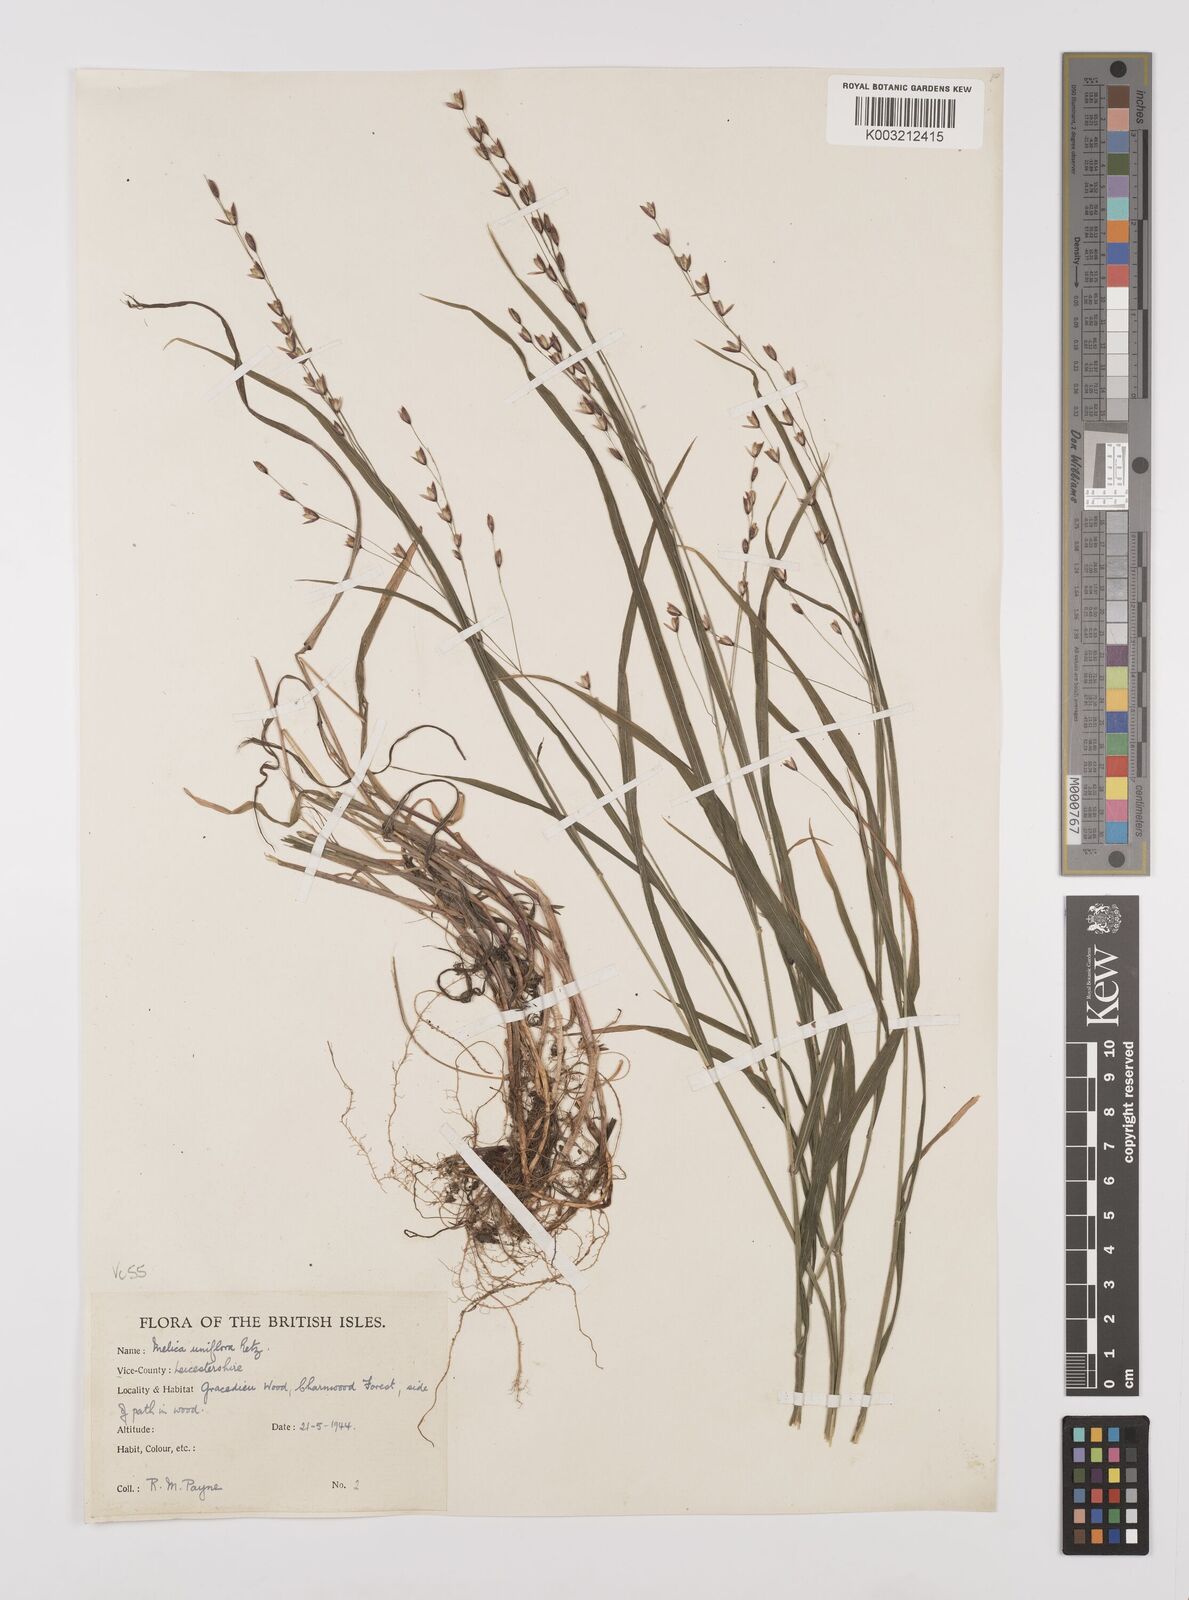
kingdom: Plantae
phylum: Tracheophyta
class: Liliopsida
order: Poales
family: Poaceae
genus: Melica
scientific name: Melica uniflora
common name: Wood melick
